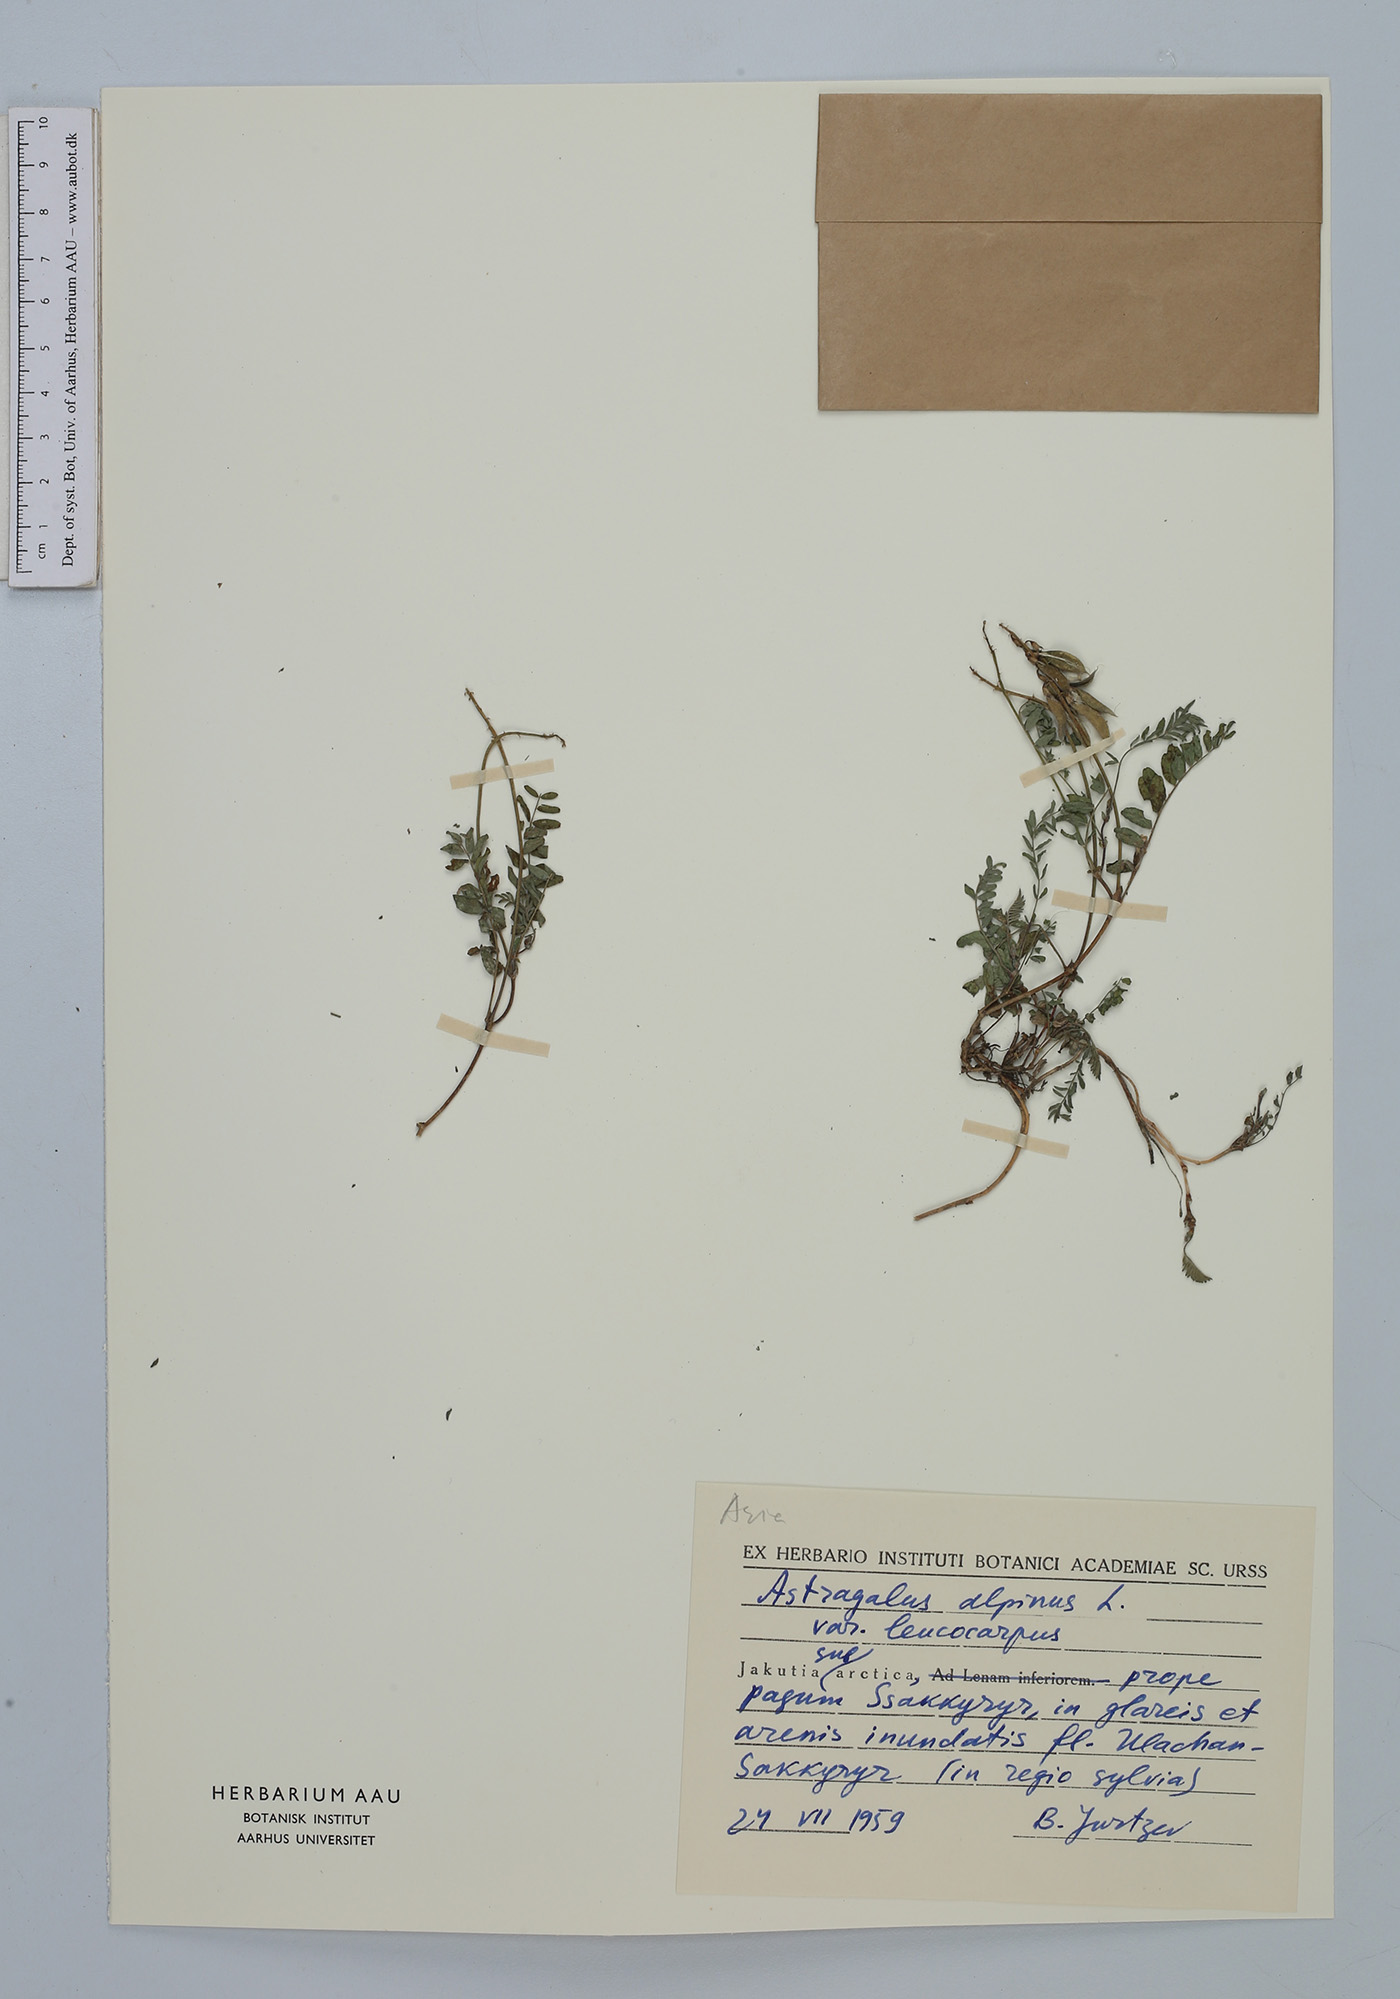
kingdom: Plantae
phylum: Tracheophyta
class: Magnoliopsida
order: Fabales
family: Fabaceae
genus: Astragalus
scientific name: Astragalus alpinus
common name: Alpine milk-vetch
